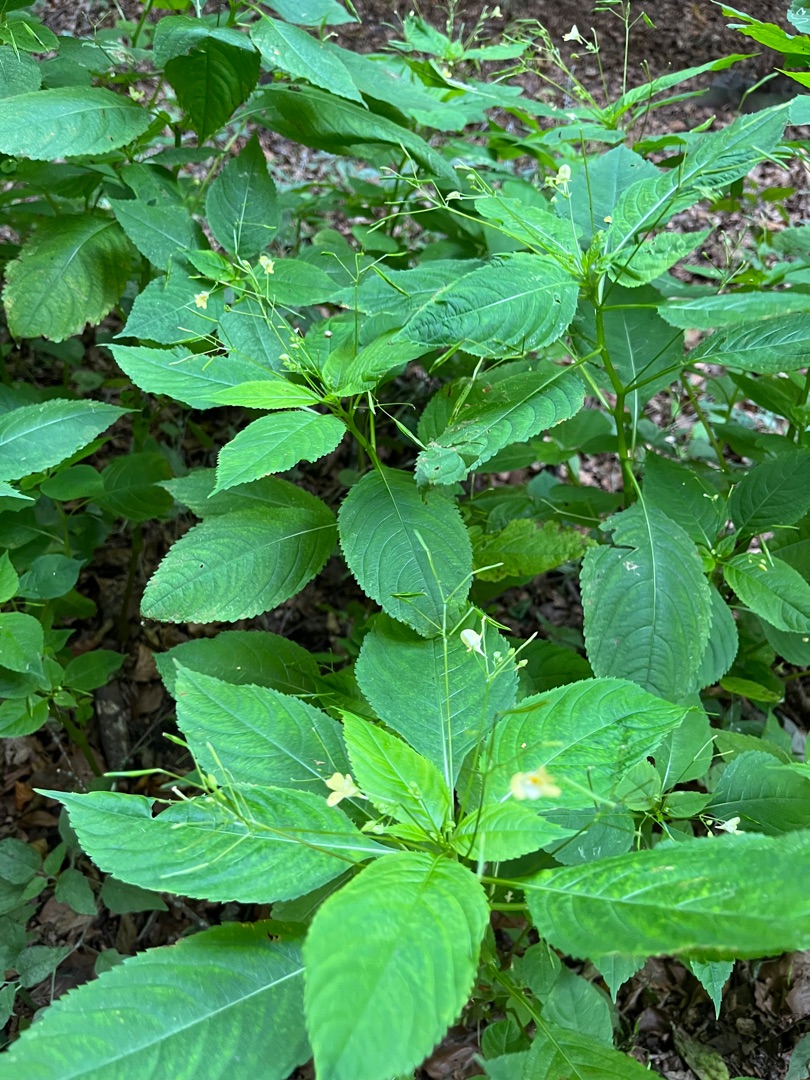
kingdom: Plantae
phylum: Tracheophyta
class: Magnoliopsida
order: Ericales
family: Balsaminaceae
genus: Impatiens
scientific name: Impatiens parviflora
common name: Småblomstret balsamin
